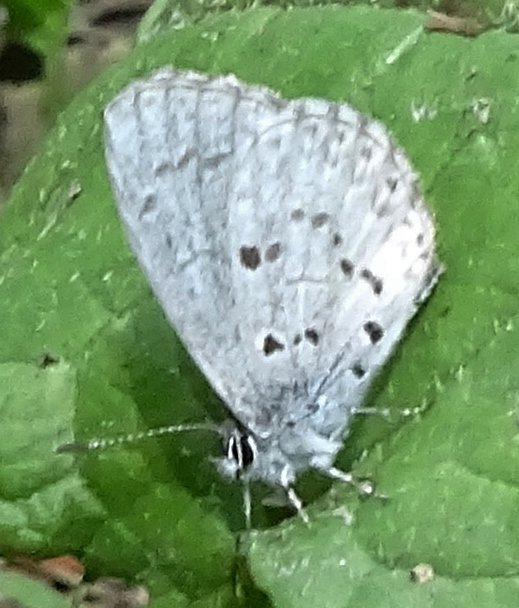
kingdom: Animalia
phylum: Arthropoda
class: Insecta
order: Lepidoptera
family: Lycaenidae
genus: Celastrina
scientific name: Celastrina lucia
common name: Northern Spring Azure
